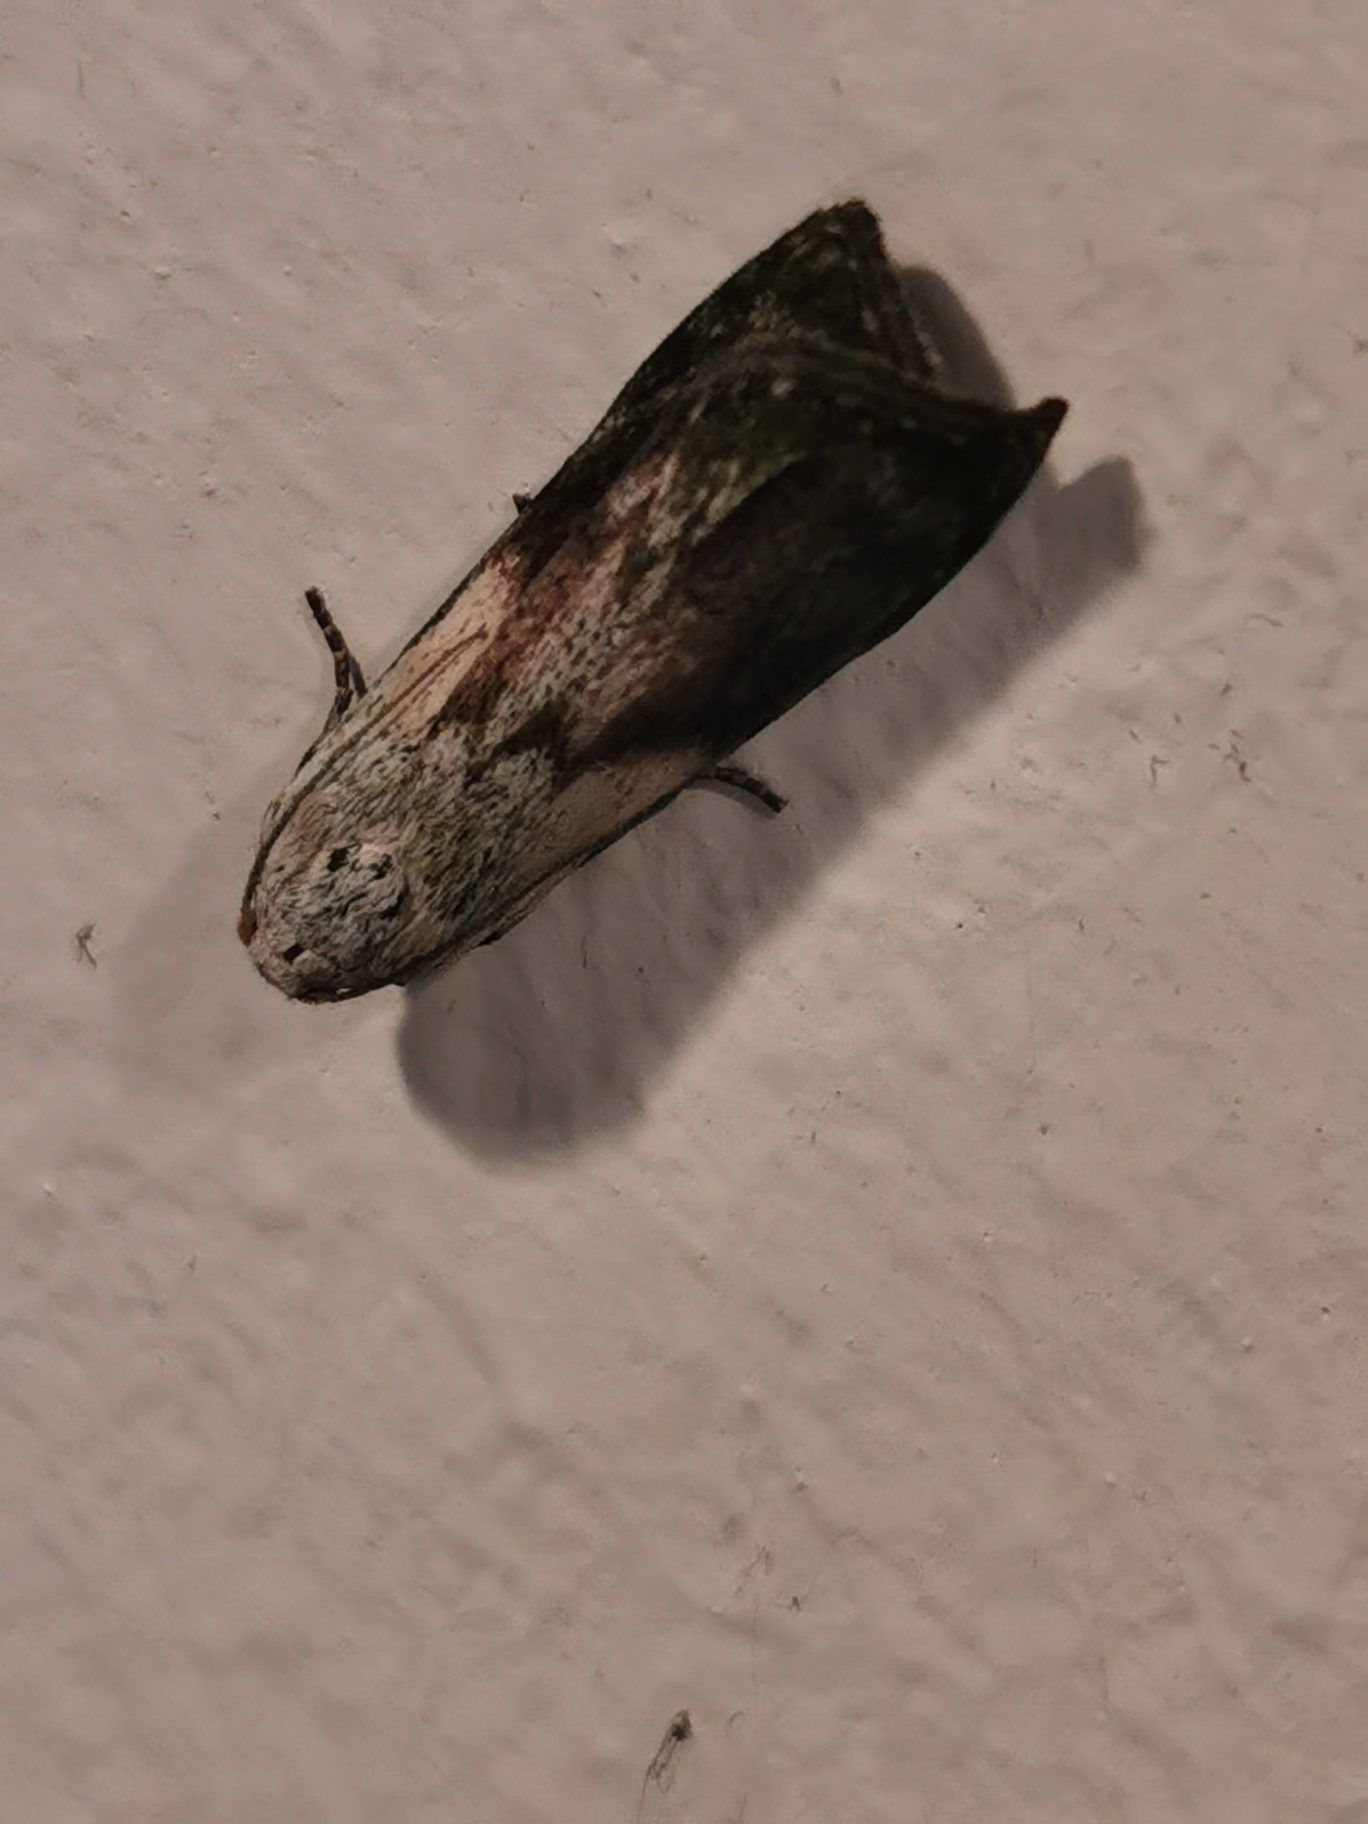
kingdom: Animalia
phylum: Arthropoda
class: Insecta
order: Lepidoptera
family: Pyralidae
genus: Aphomia
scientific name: Aphomia sociella
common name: Humlevoksmøl
